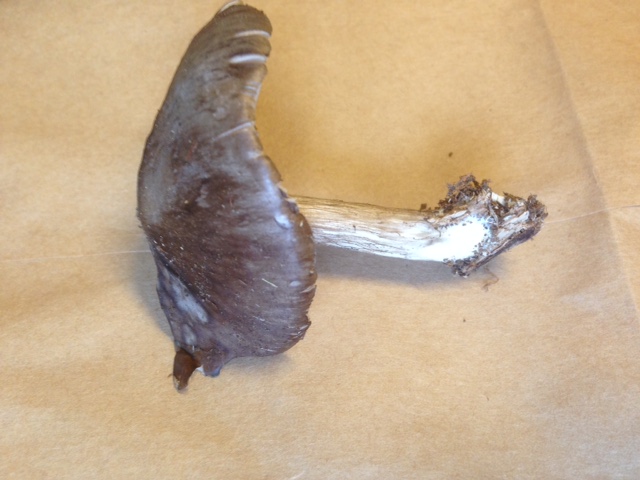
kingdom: Fungi
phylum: Basidiomycota
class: Agaricomycetes
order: Agaricales
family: Pluteaceae
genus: Pluteus
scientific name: Pluteus cervinus
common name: sodfarvet skærmhat
